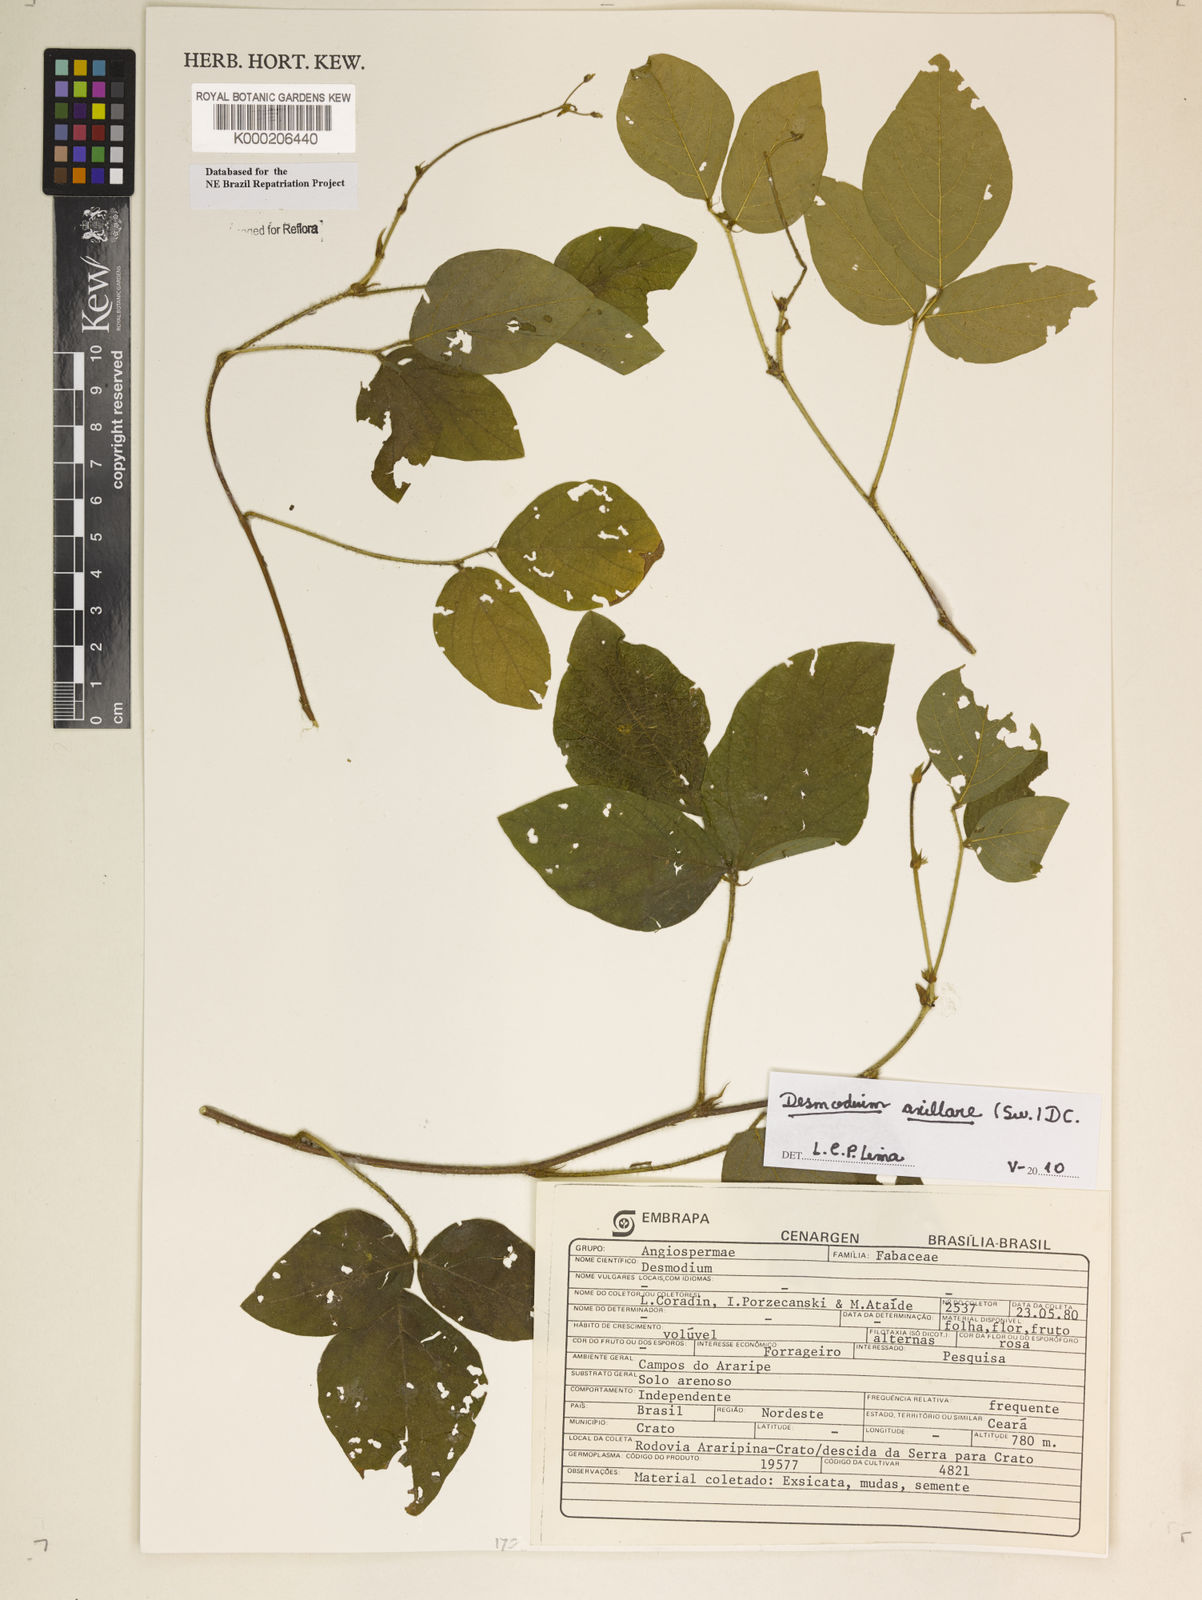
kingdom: Plantae
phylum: Tracheophyta
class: Magnoliopsida
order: Fabales
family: Fabaceae
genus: Desmodium
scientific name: Desmodium
